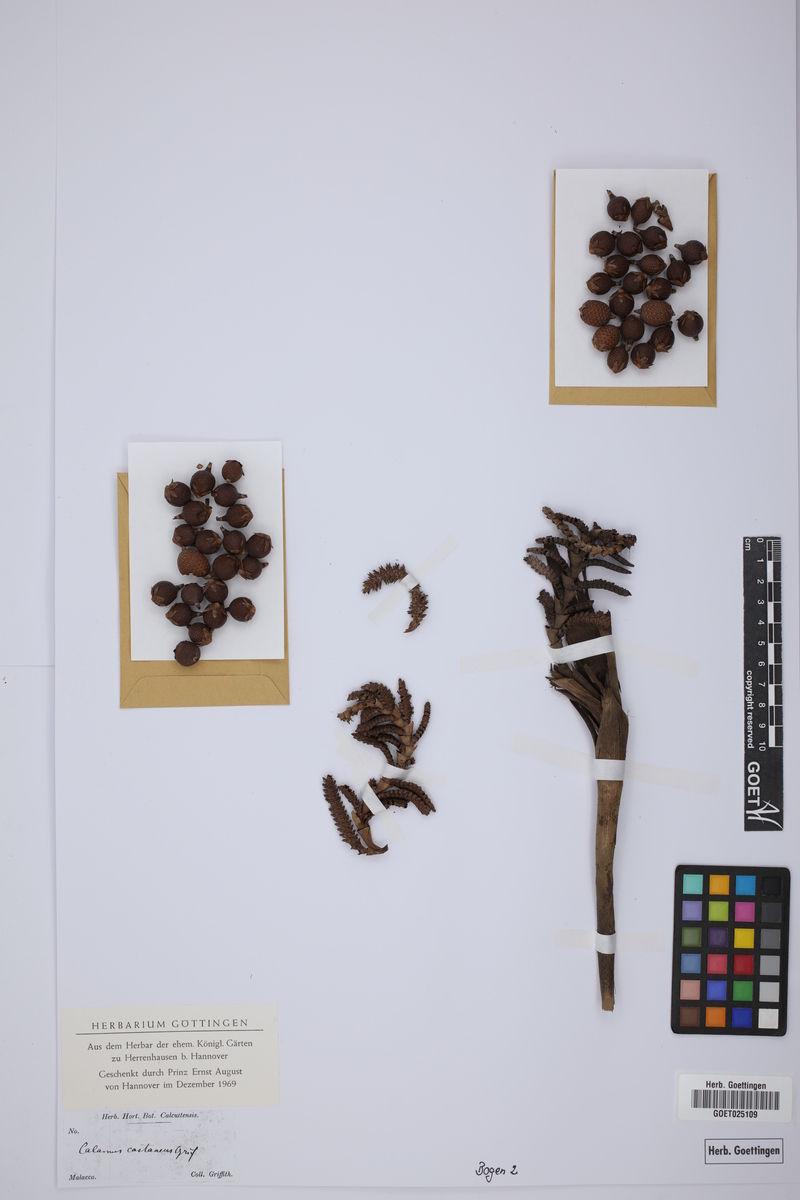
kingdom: Plantae
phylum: Tracheophyta
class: Liliopsida
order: Arecales
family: Arecaceae
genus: Calamus
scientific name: Calamus castaneus
